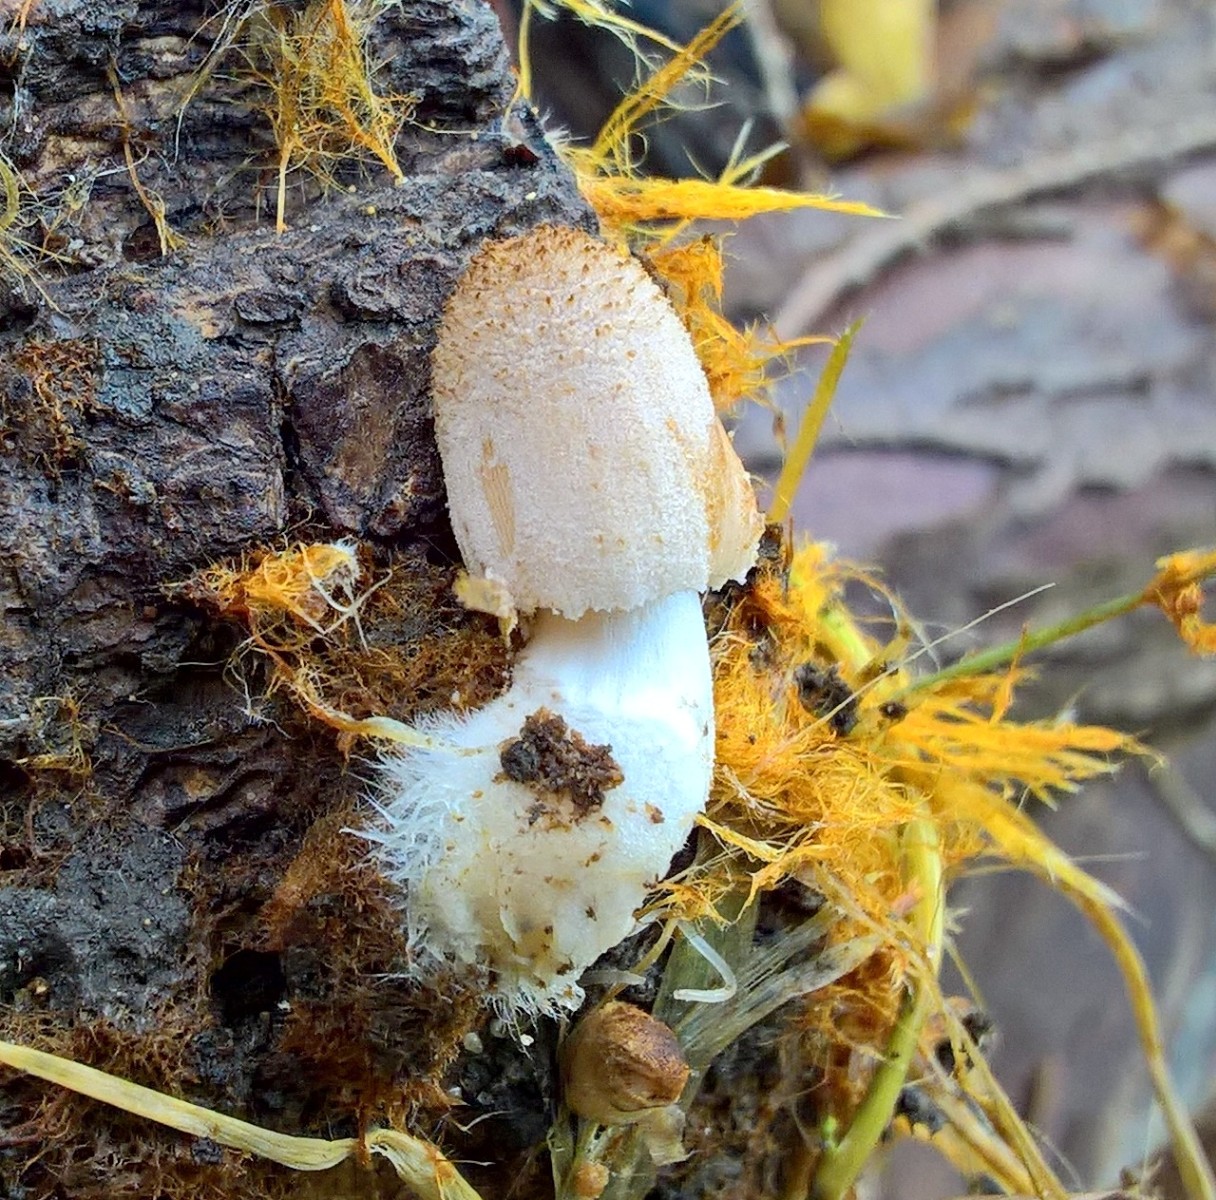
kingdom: Fungi
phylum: Basidiomycota
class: Agaricomycetes
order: Agaricales
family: Psathyrellaceae
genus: Coprinellus
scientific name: Coprinellus
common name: blækhat
